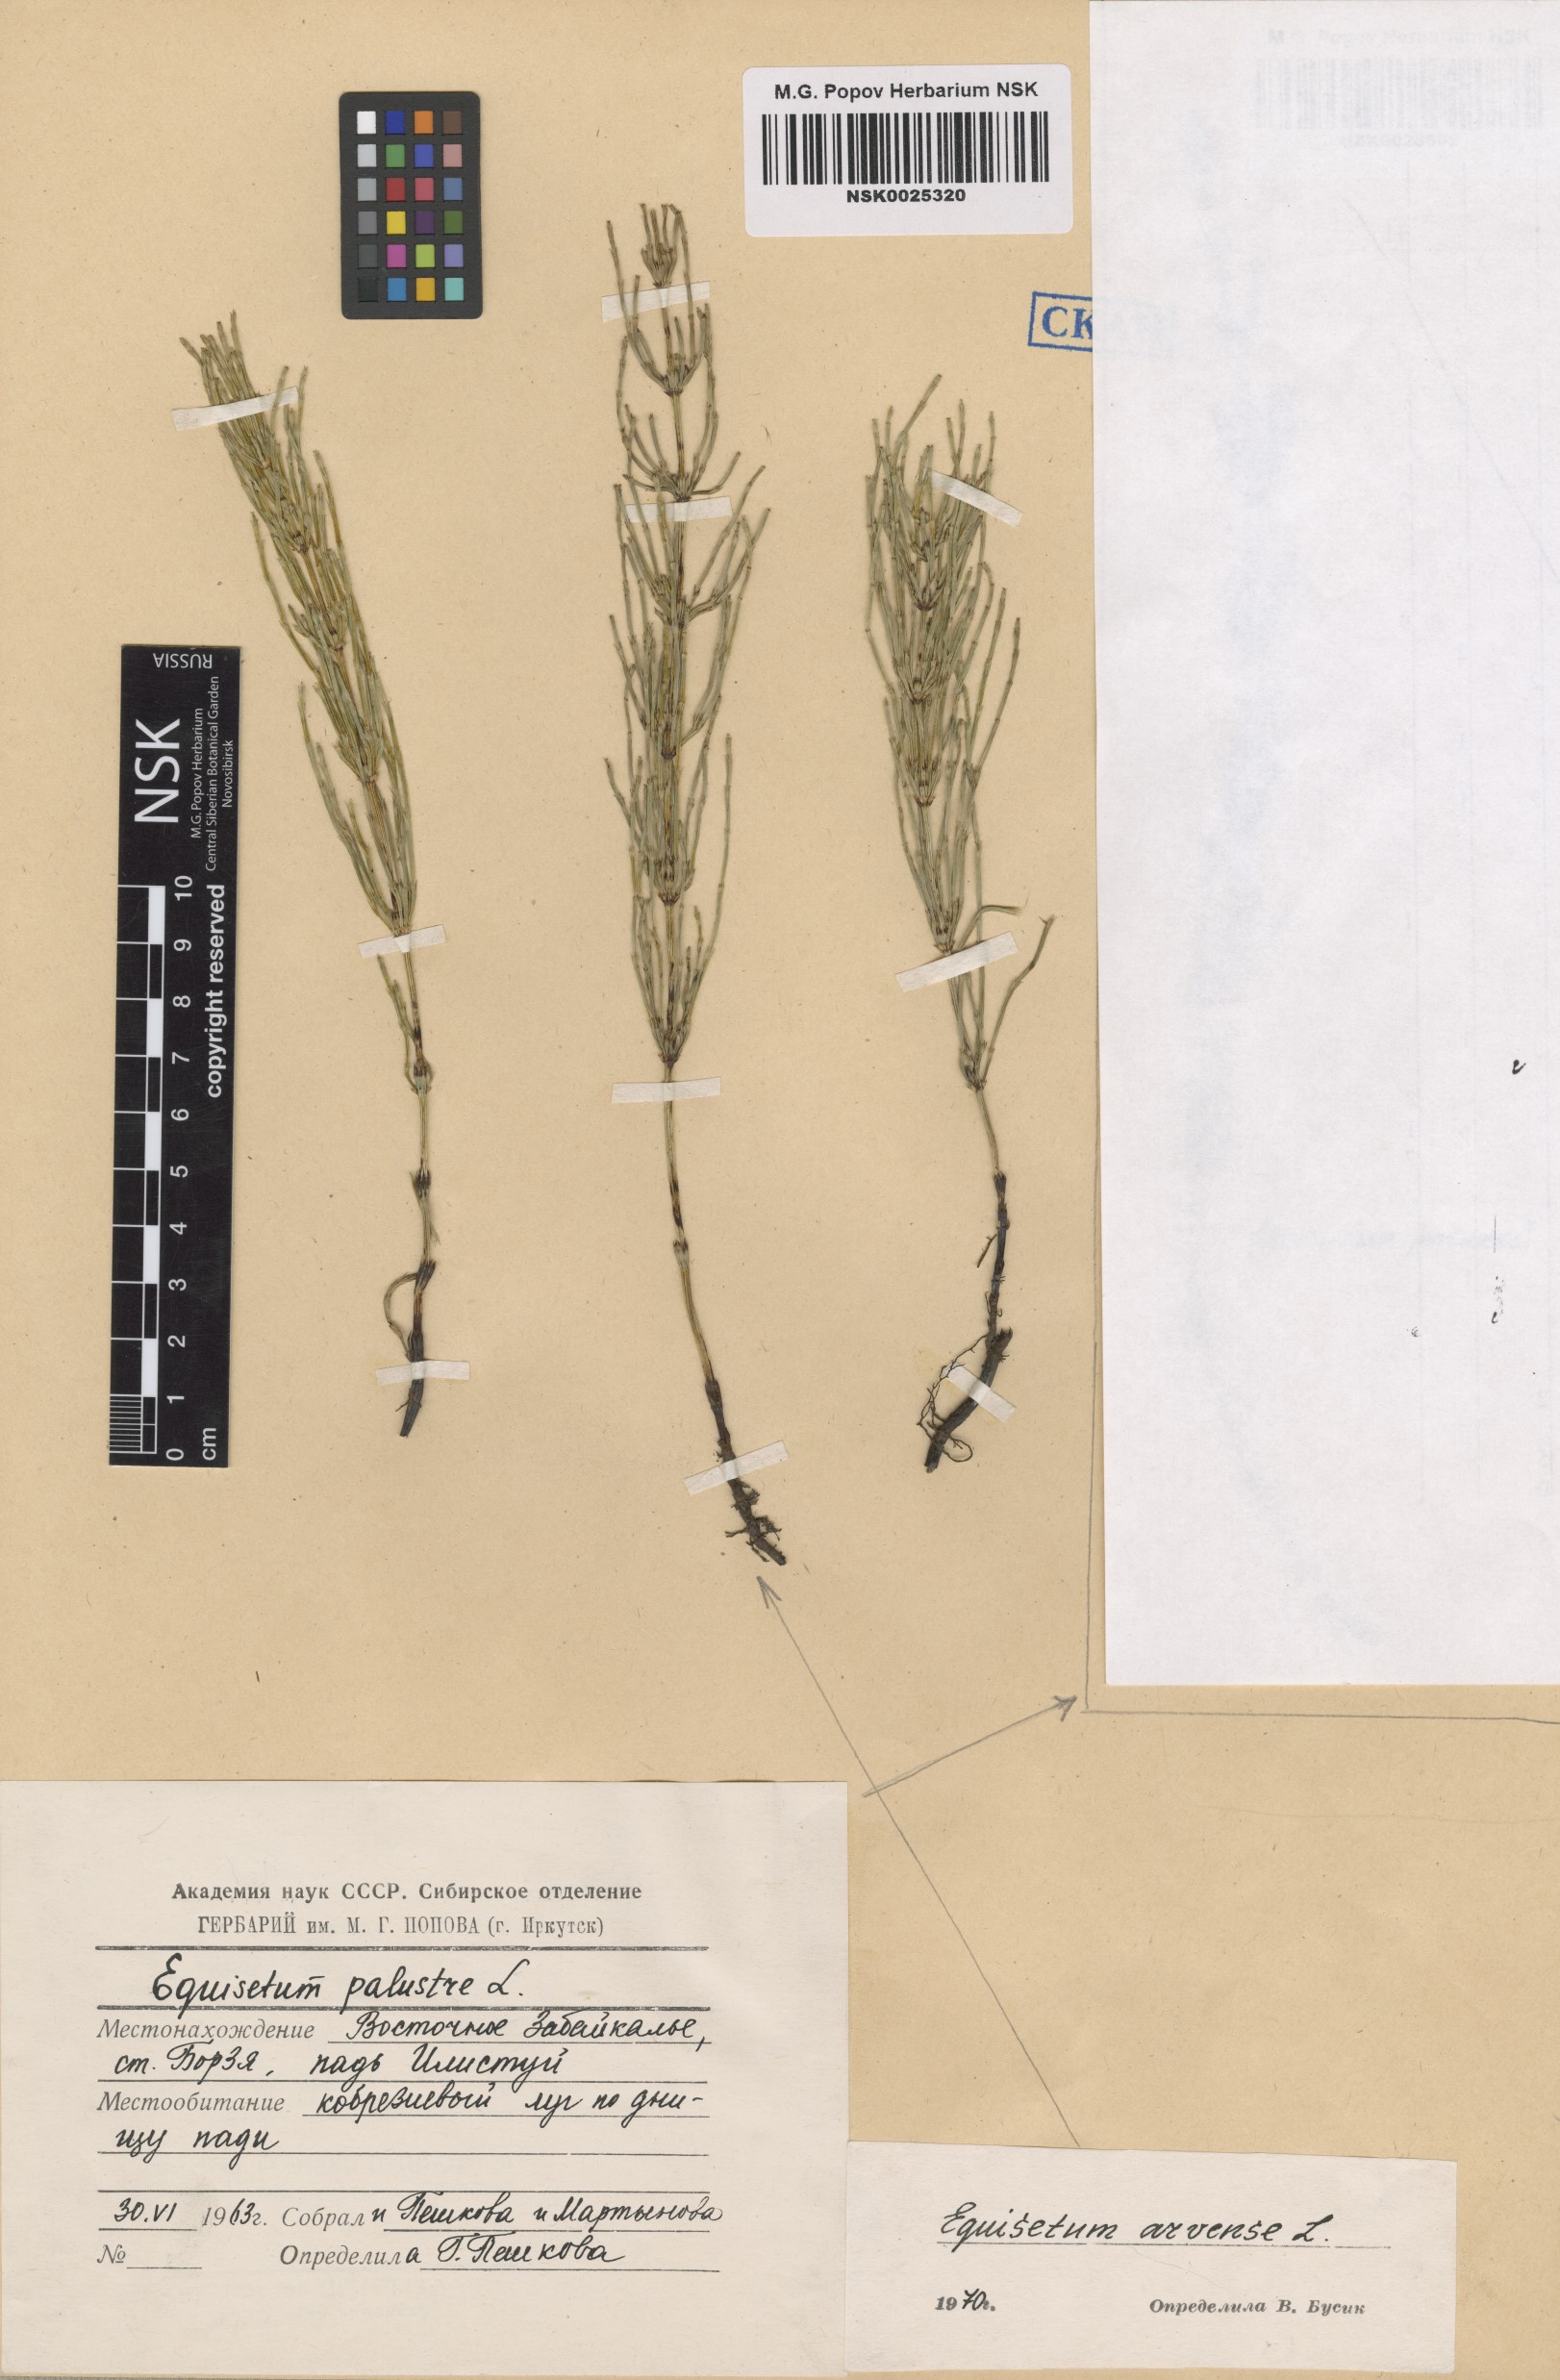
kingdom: Plantae
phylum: Tracheophyta
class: Polypodiopsida
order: Equisetales
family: Equisetaceae
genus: Equisetum
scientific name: Equisetum arvense
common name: Field horsetail
